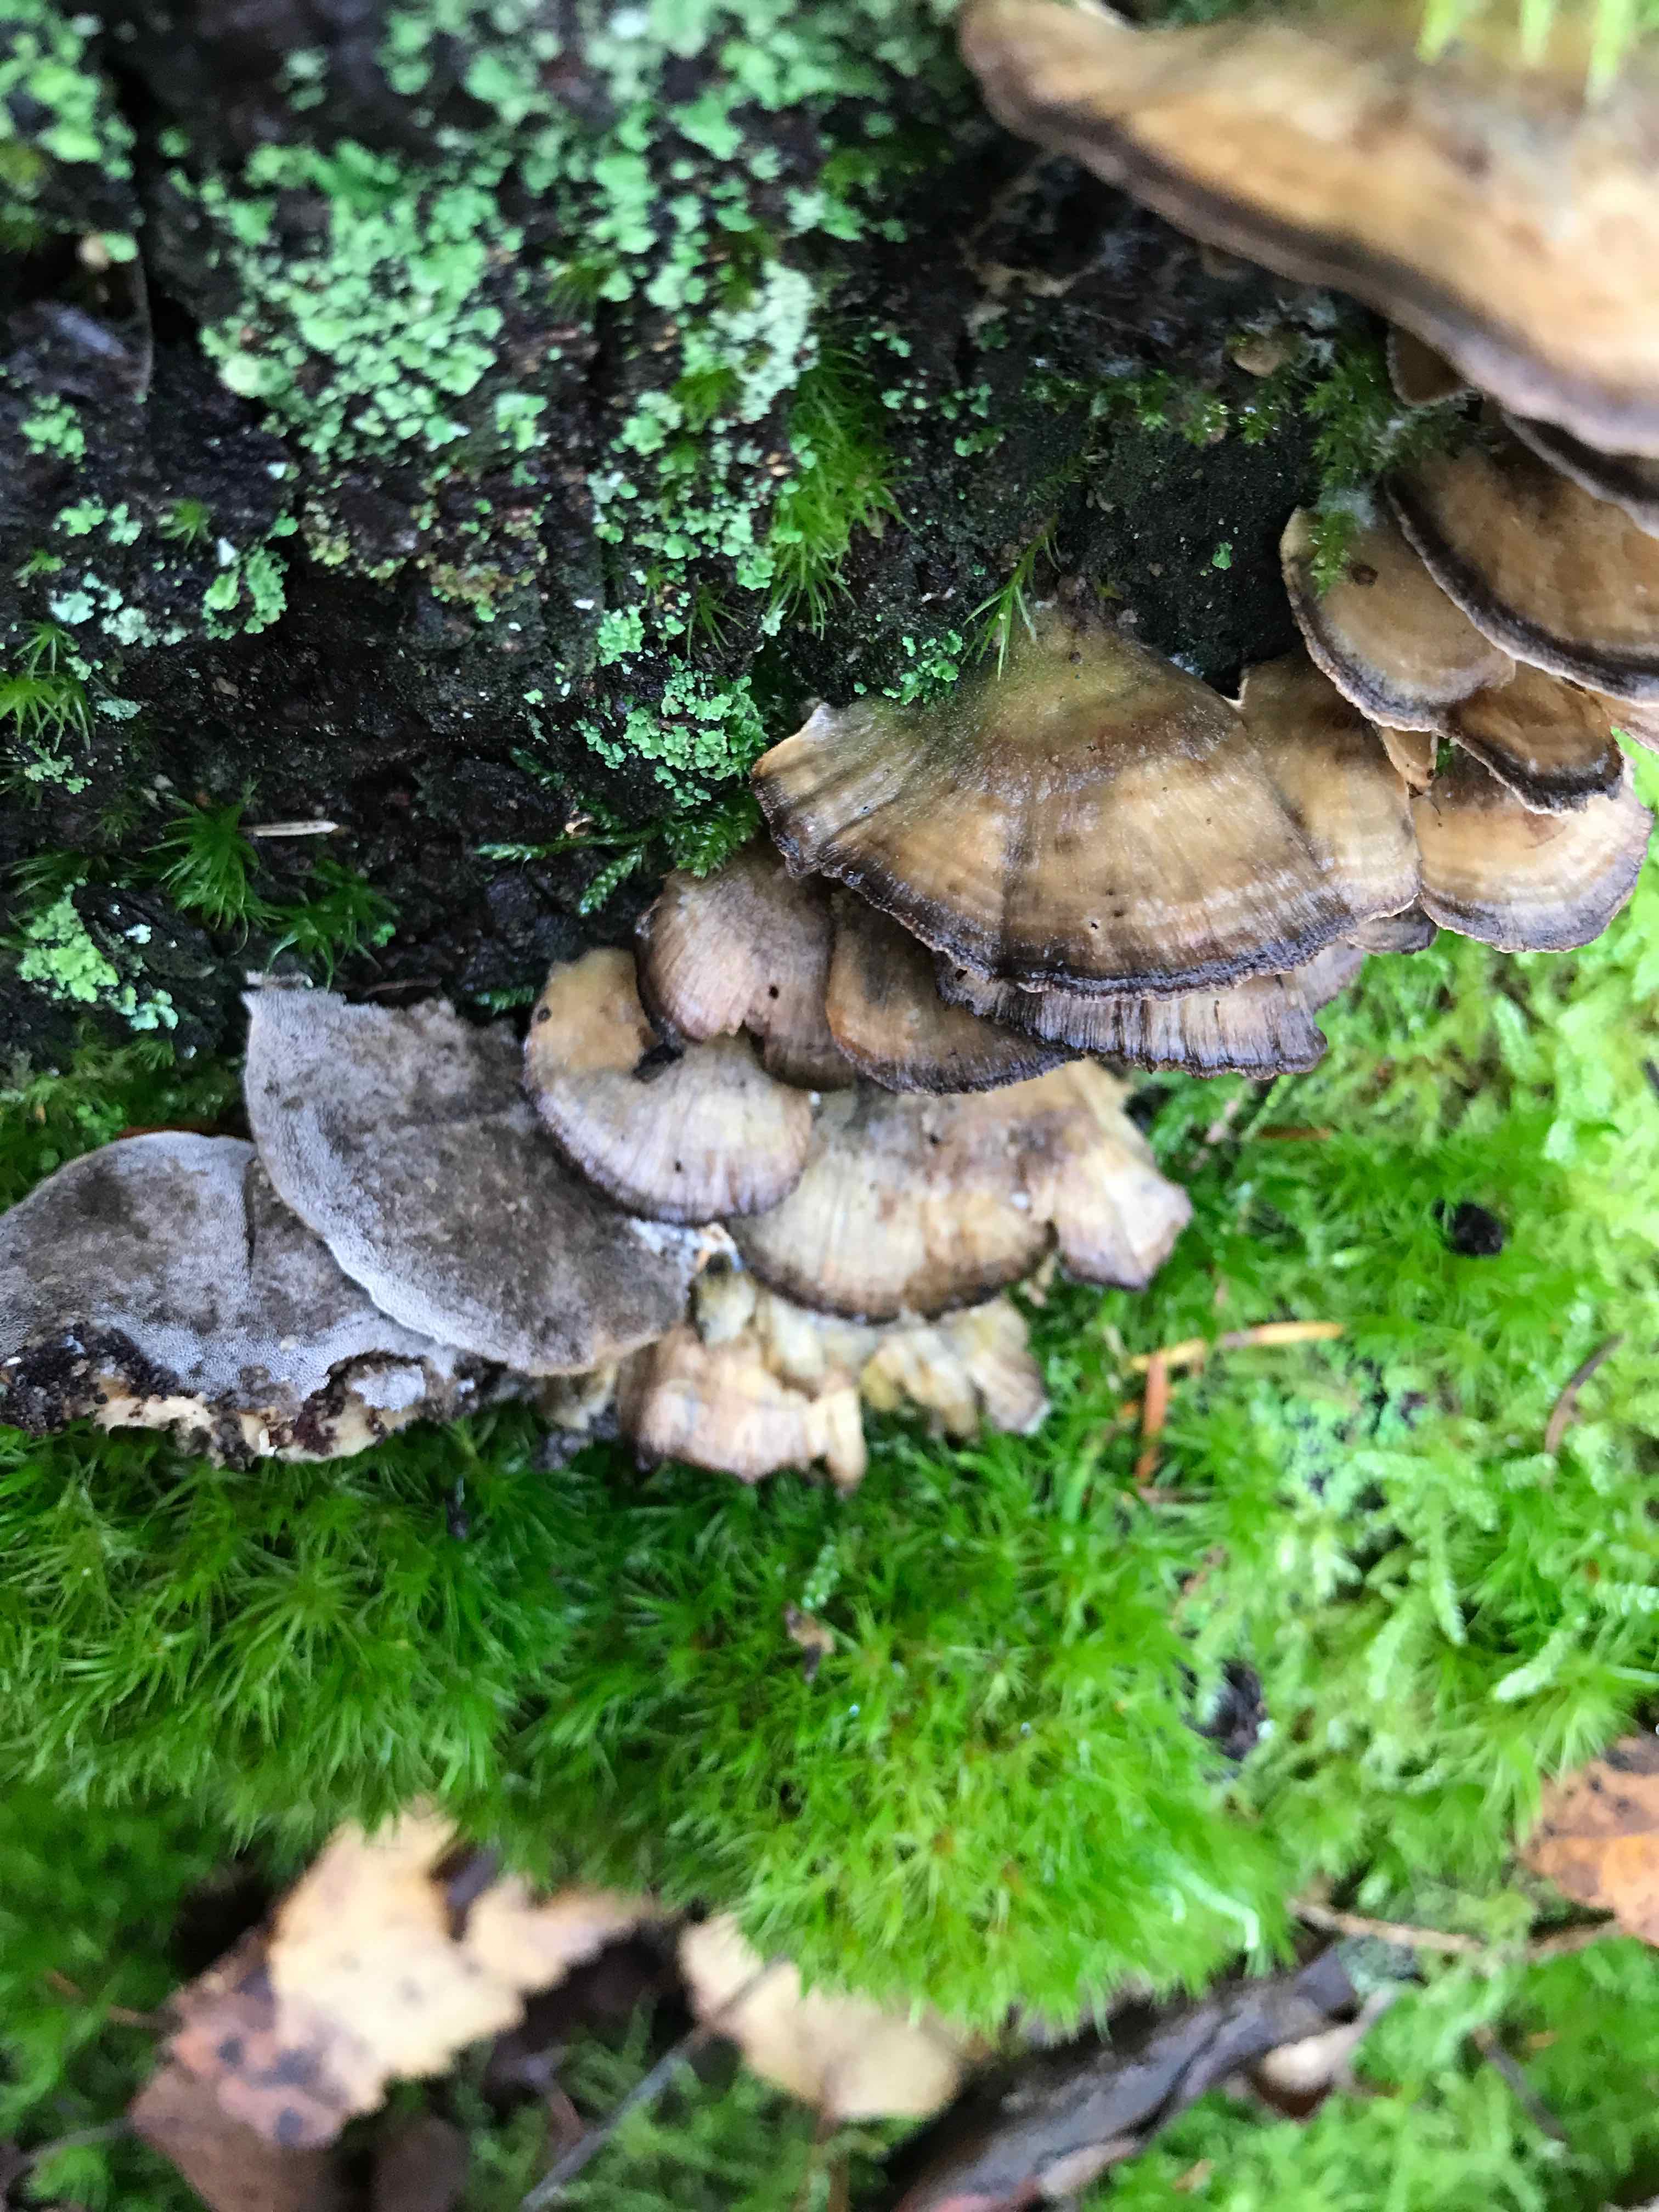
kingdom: Fungi
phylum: Basidiomycota
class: Agaricomycetes
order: Polyporales
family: Phanerochaetaceae
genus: Bjerkandera
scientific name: Bjerkandera adusta
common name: sveden sodporesvamp
